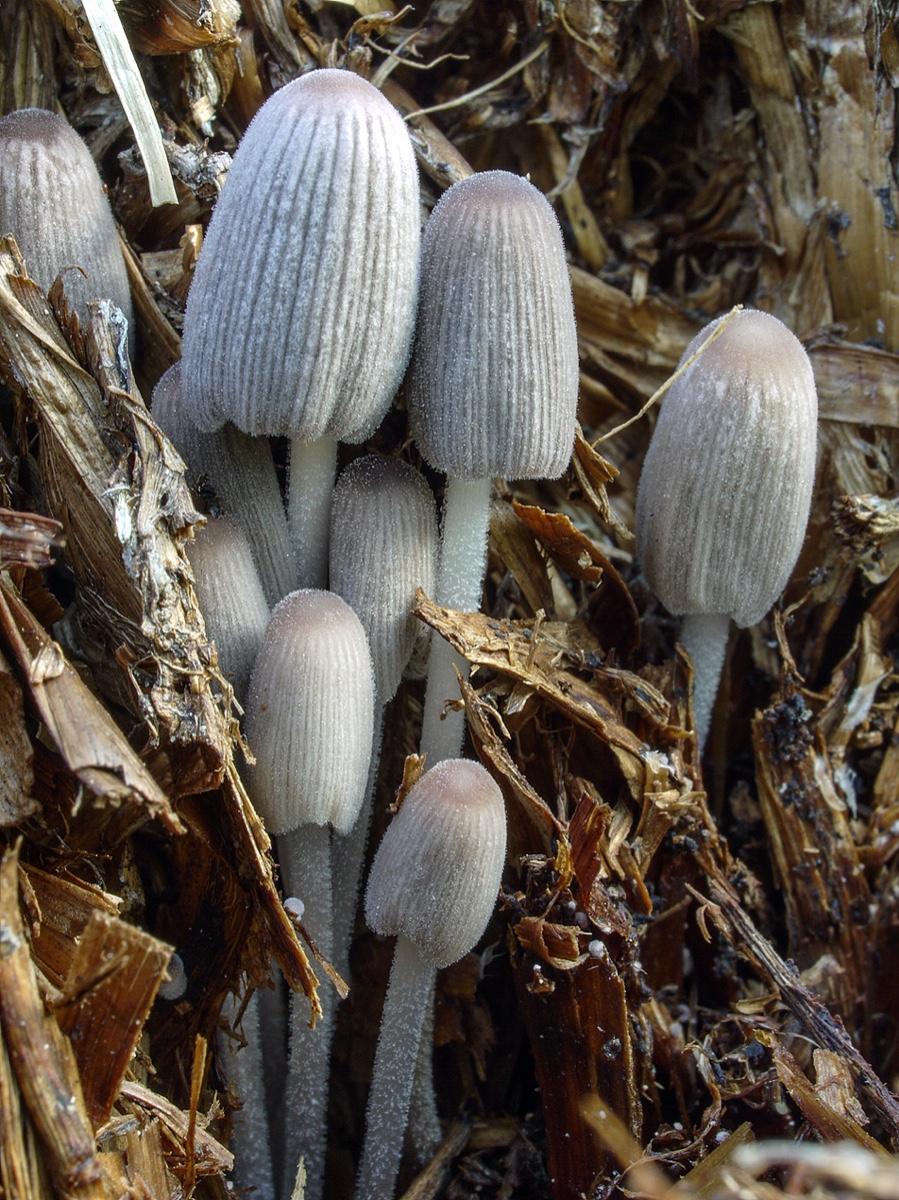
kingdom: Fungi
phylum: Basidiomycota
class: Agaricomycetes
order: Agaricales
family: Psathyrellaceae
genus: Tulosesus
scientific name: Tulosesus marculentus
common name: hexagonsporet blækhat
